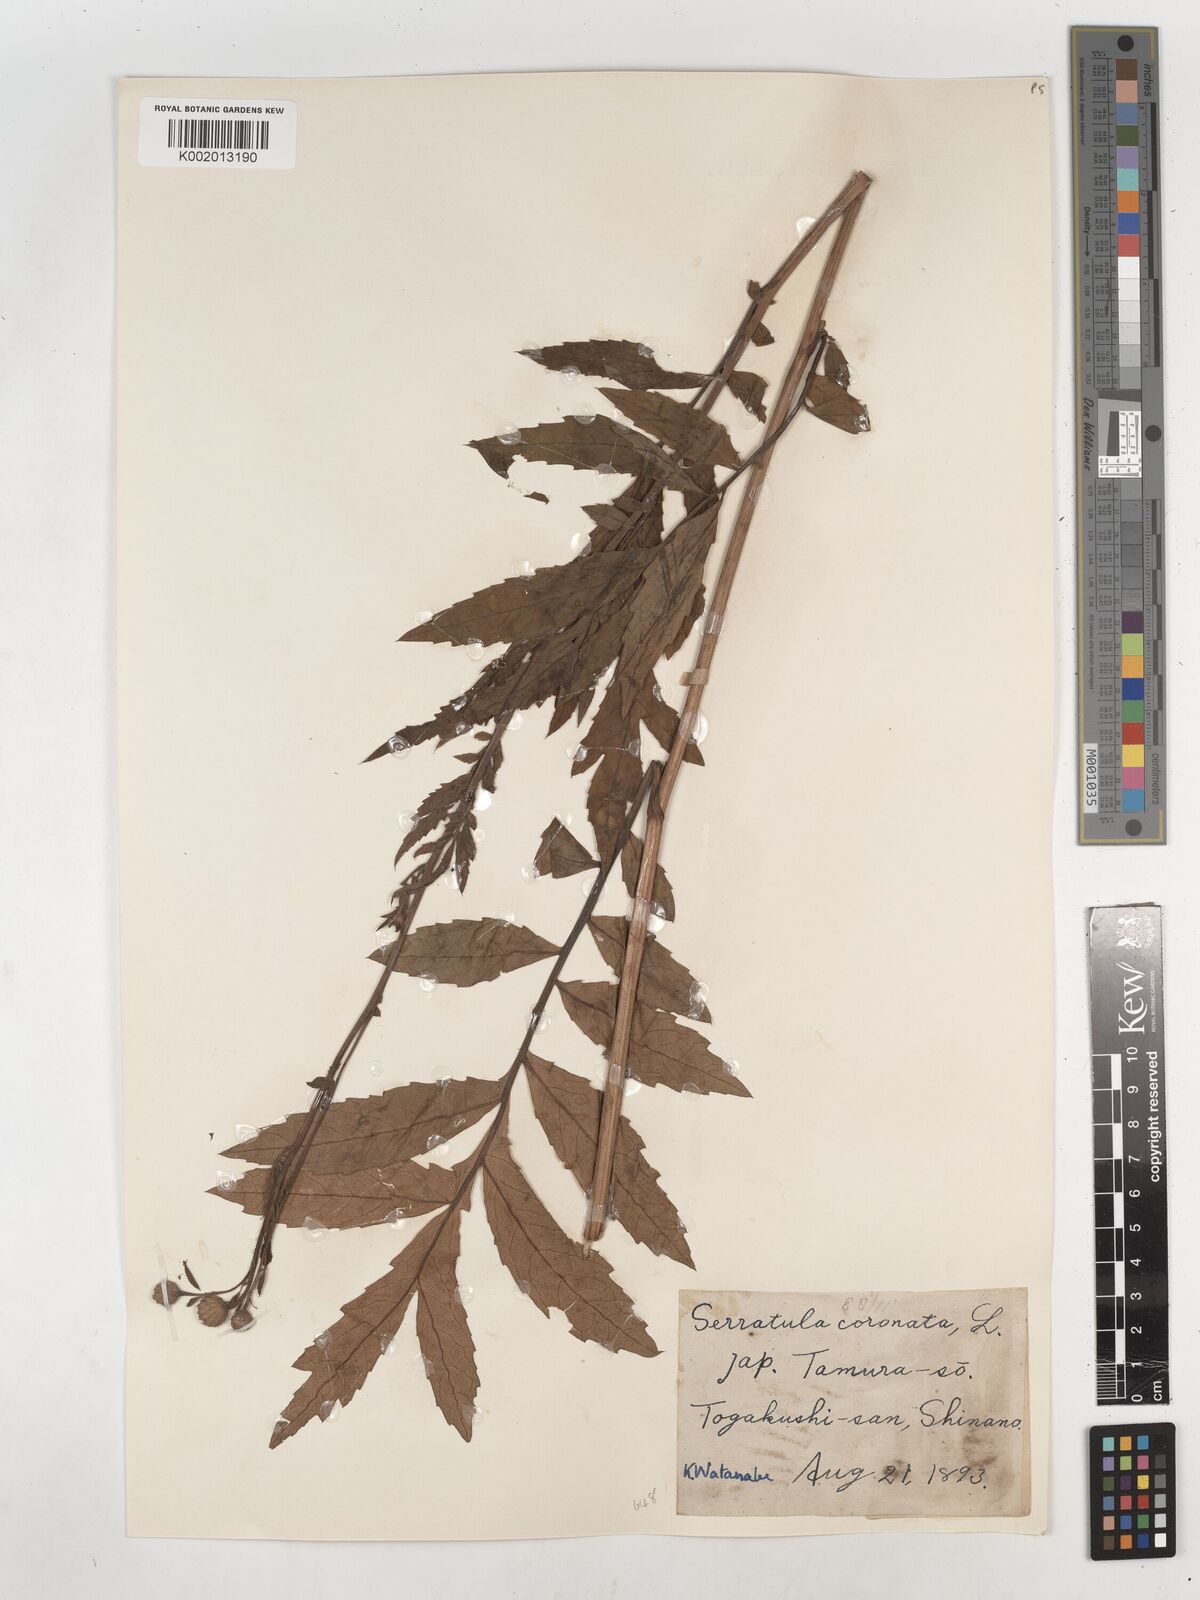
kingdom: Plantae
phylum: Tracheophyta
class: Magnoliopsida
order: Asterales
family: Asteraceae
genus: Serratula
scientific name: Serratula coronata
